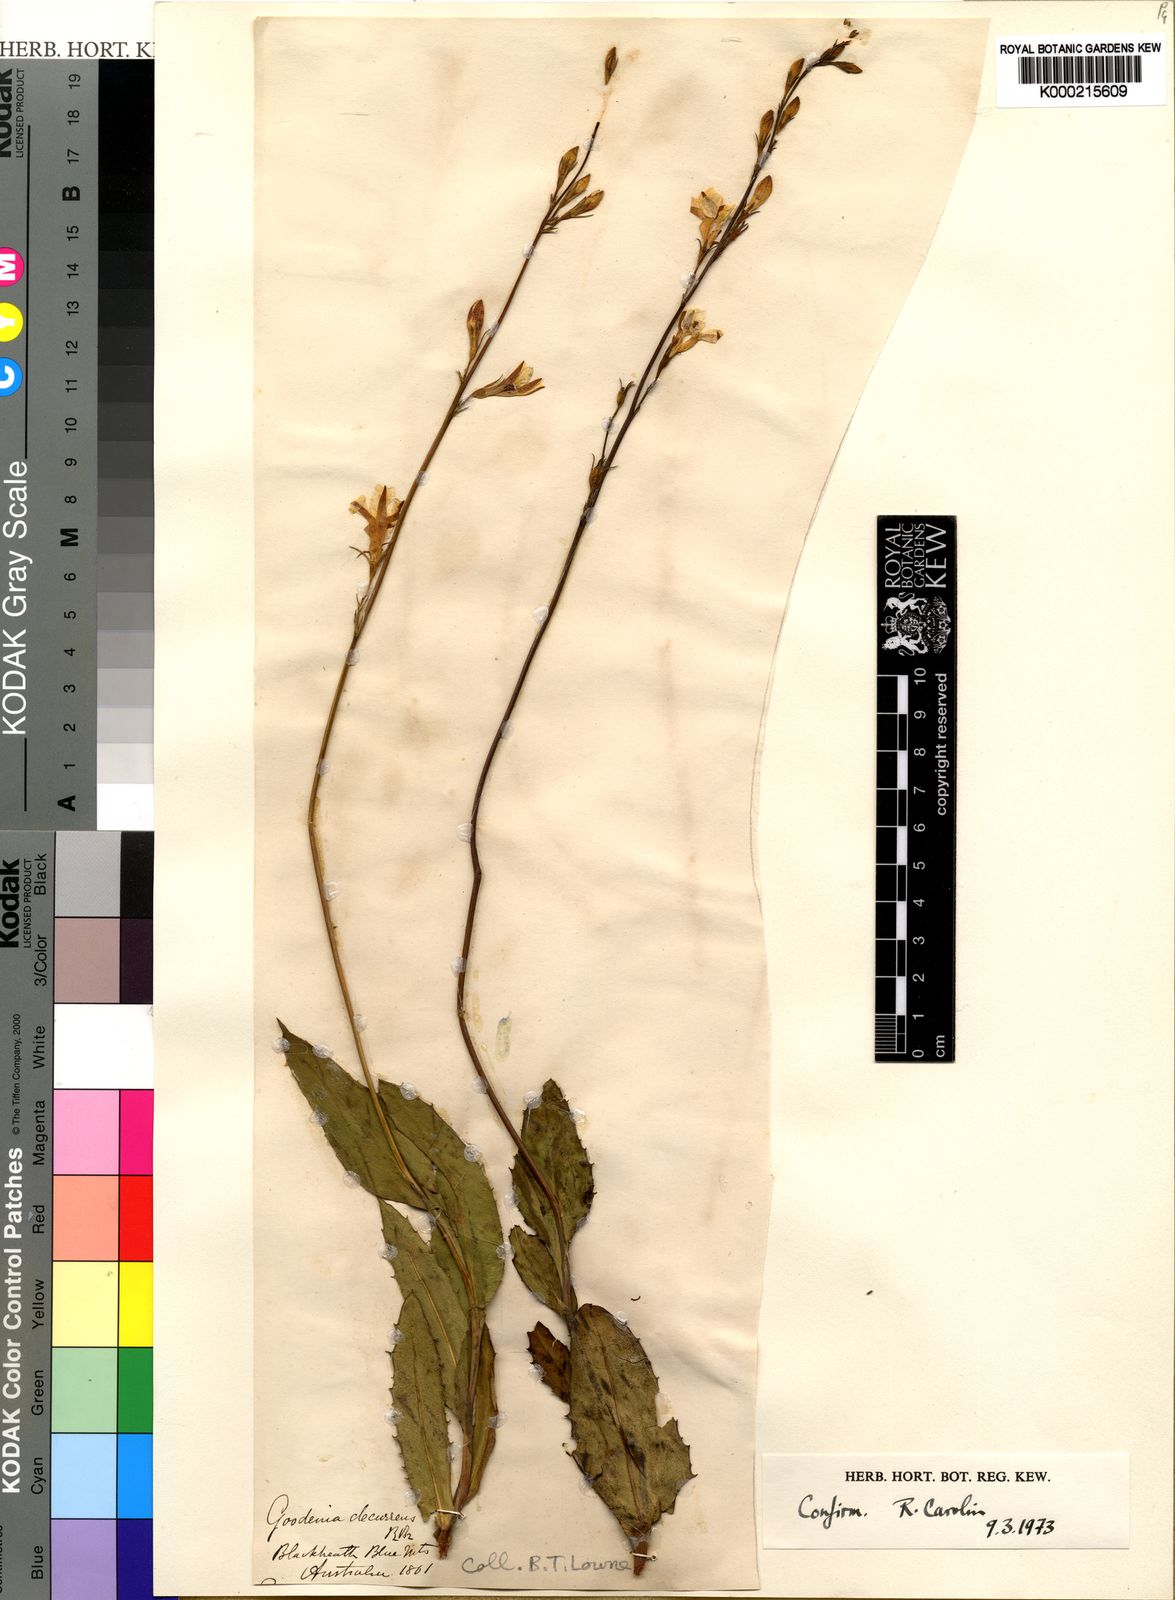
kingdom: Plantae
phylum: Tracheophyta
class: Magnoliopsida
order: Asterales
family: Goodeniaceae
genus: Goodenia
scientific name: Goodenia decurrens
